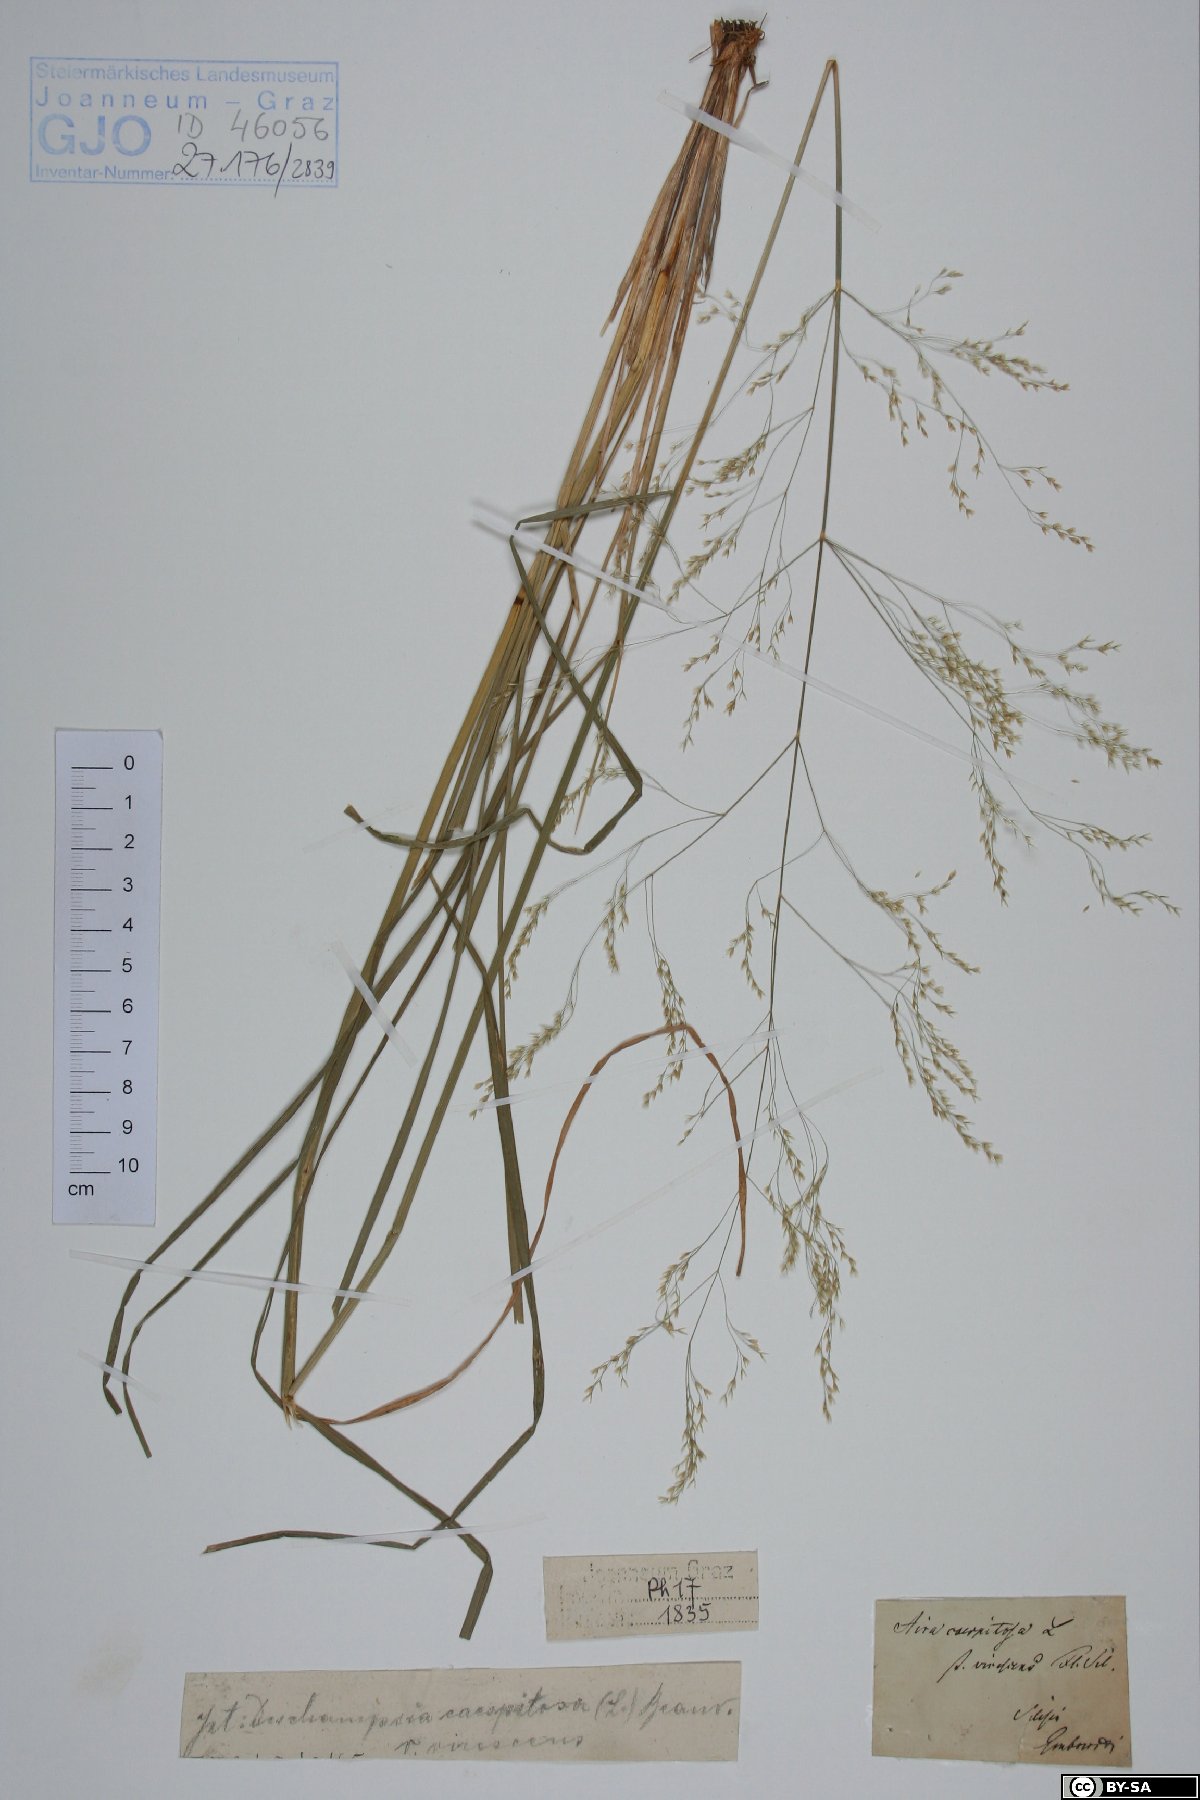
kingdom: Plantae
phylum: Tracheophyta
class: Liliopsida
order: Poales
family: Poaceae
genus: Deschampsia
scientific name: Deschampsia cespitosa
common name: Tufted hair-grass
